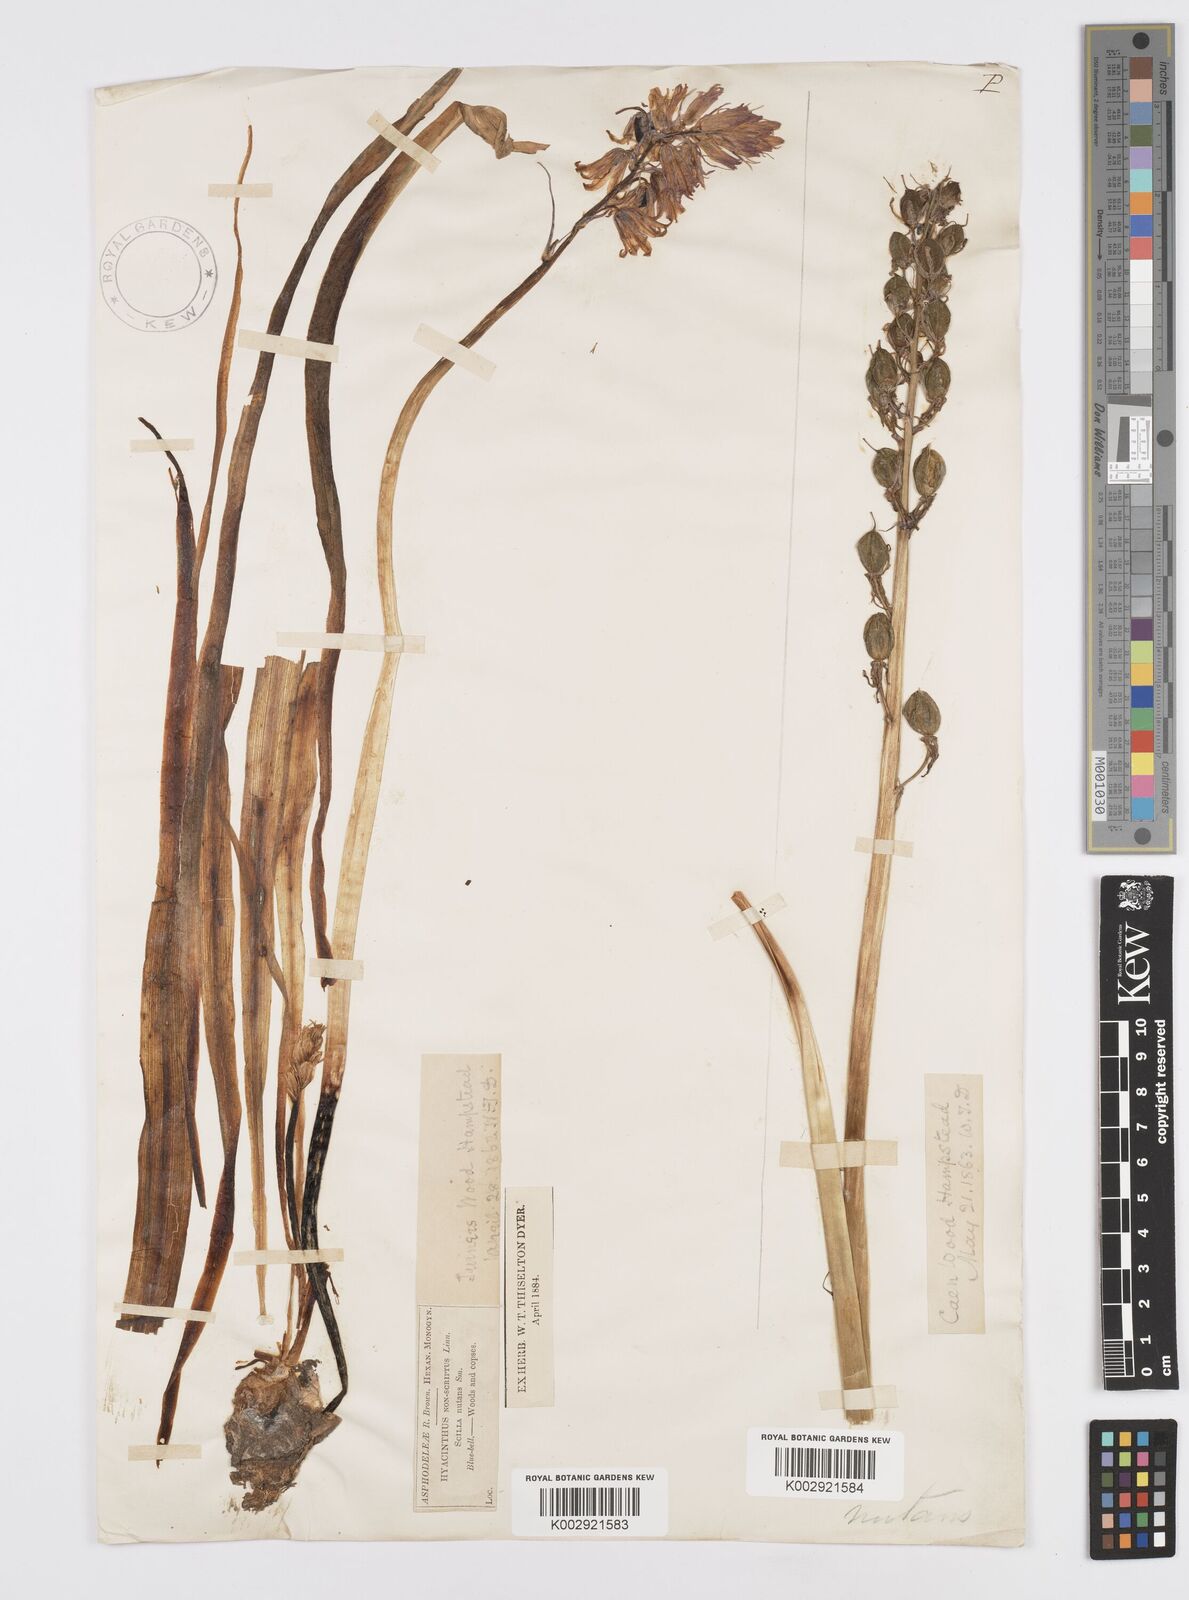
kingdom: Plantae
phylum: Tracheophyta
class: Liliopsida
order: Asparagales
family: Asparagaceae
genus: Hyacinthoides
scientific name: Hyacinthoides non-scripta
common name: Bluebell
